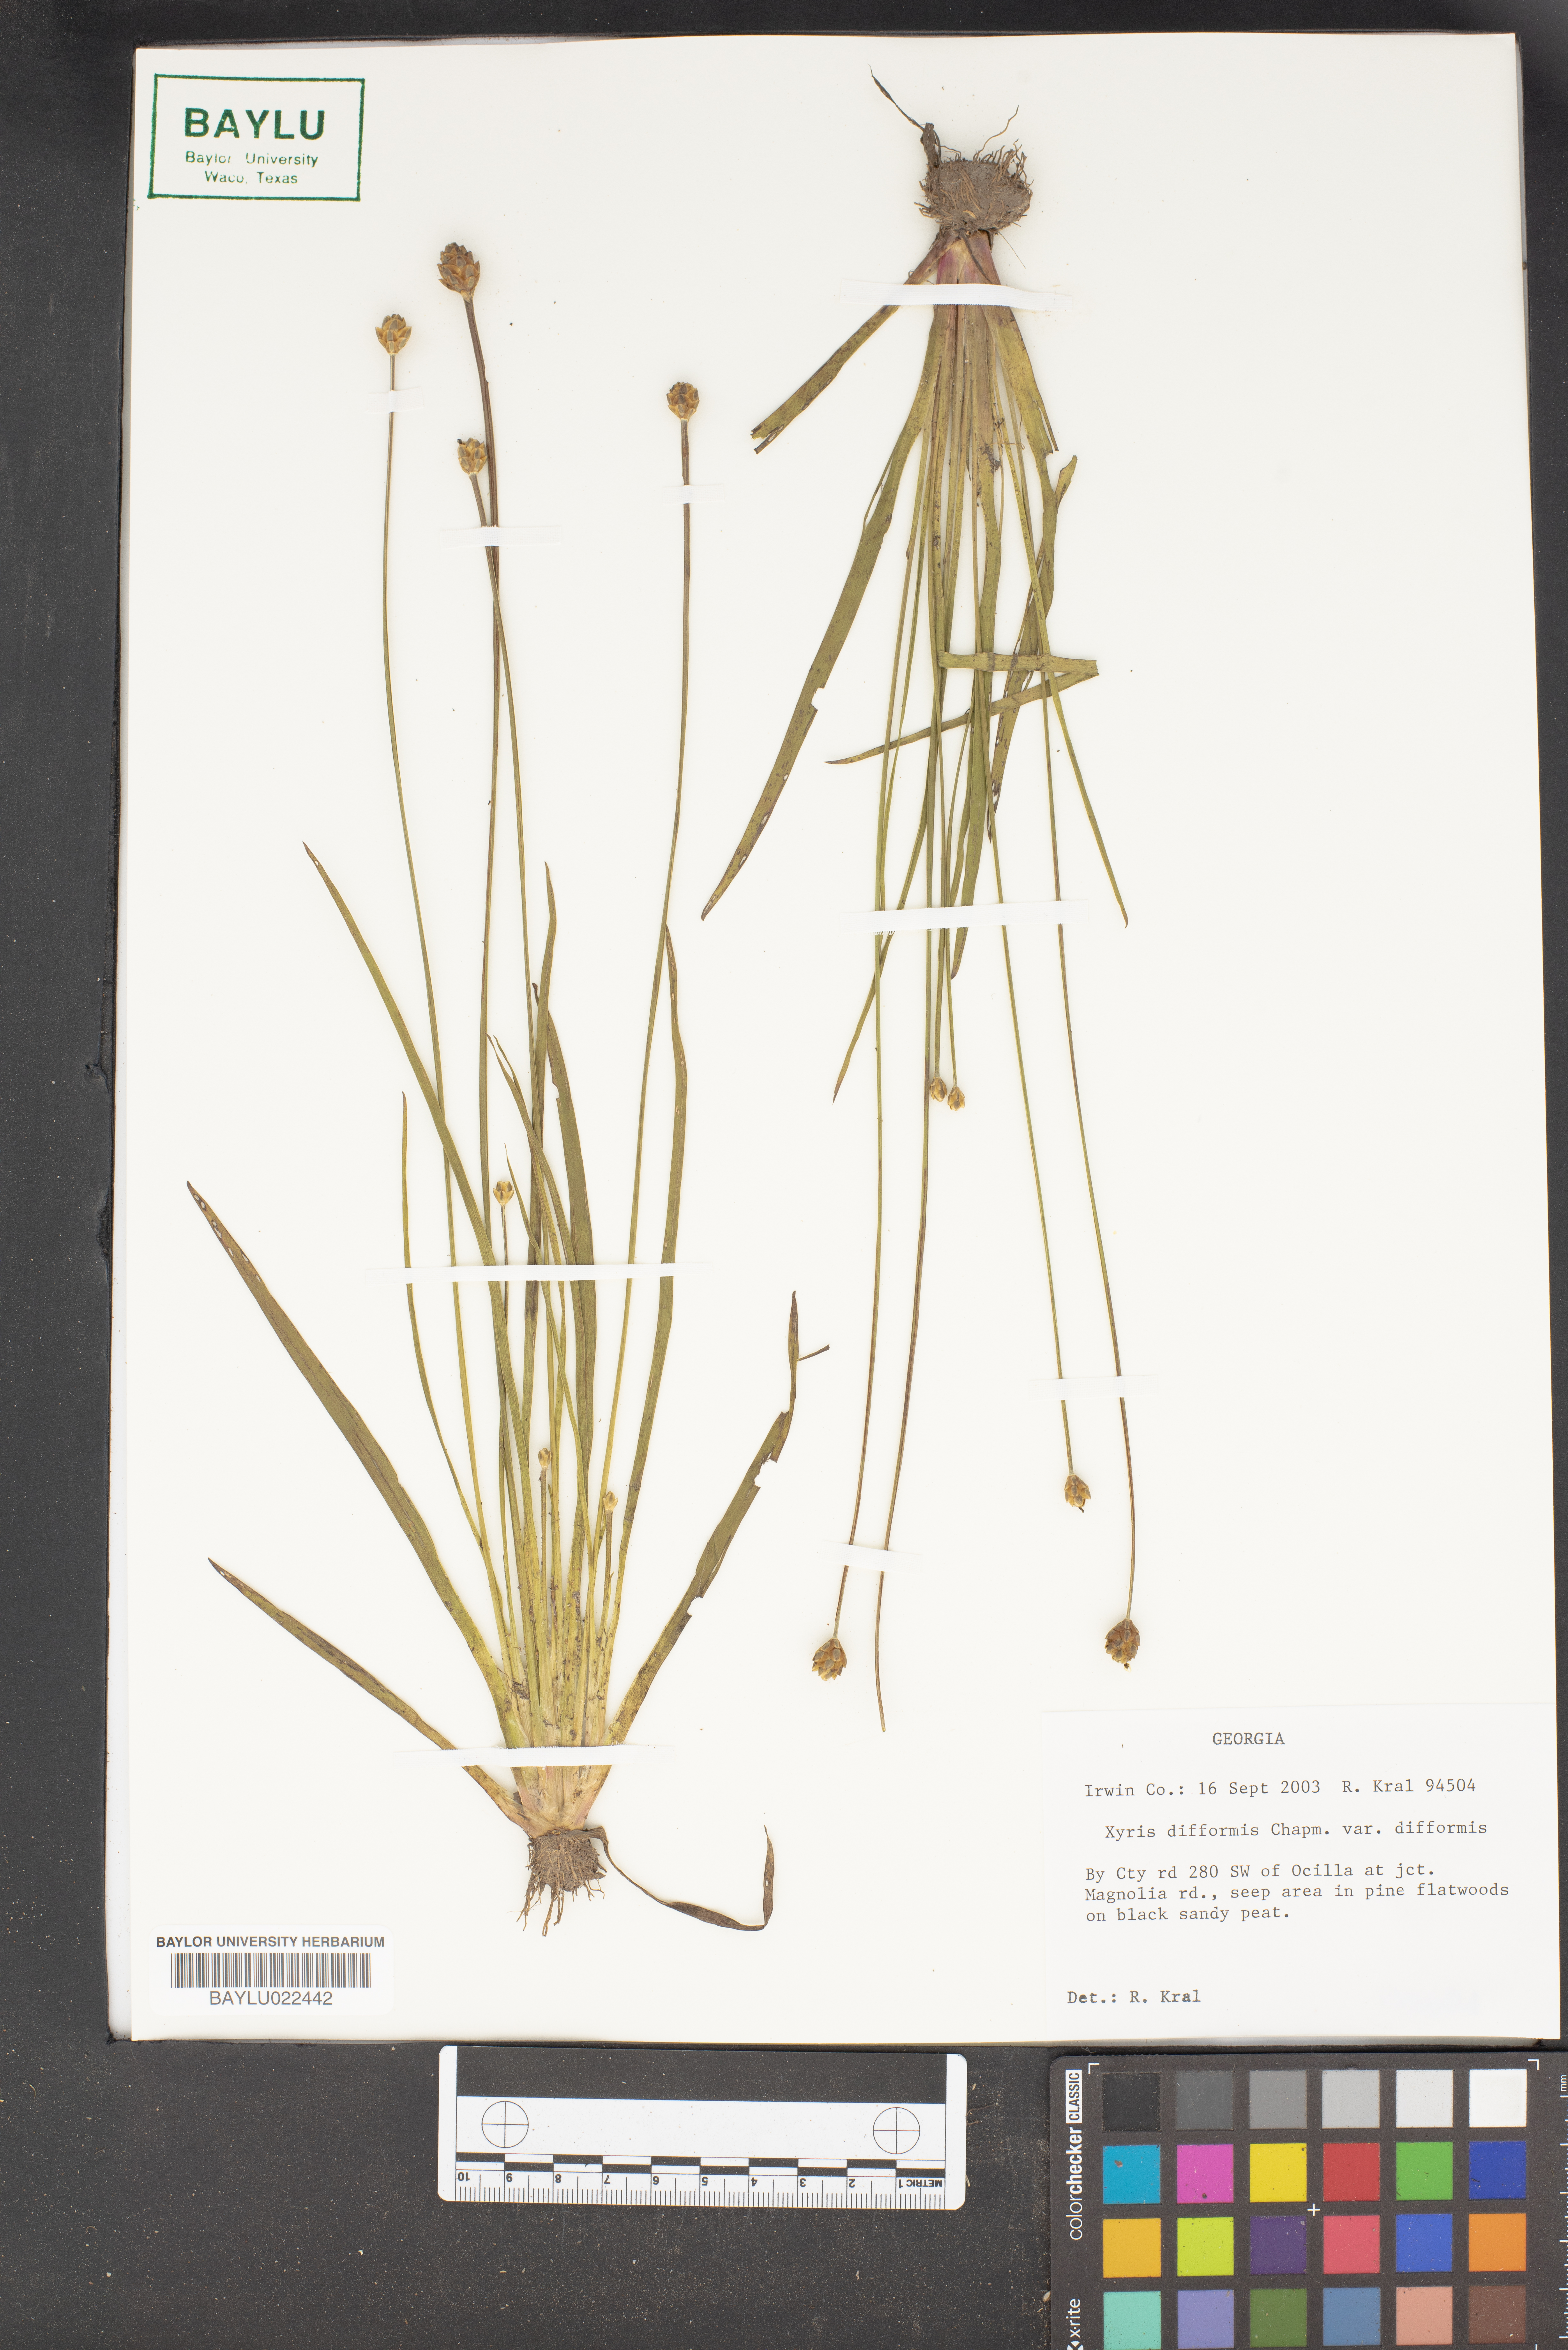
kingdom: Plantae
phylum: Tracheophyta
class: Liliopsida
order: Poales
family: Xyridaceae
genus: Xyris
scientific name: Xyris difformis
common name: Bog yellow-eyed-grass
